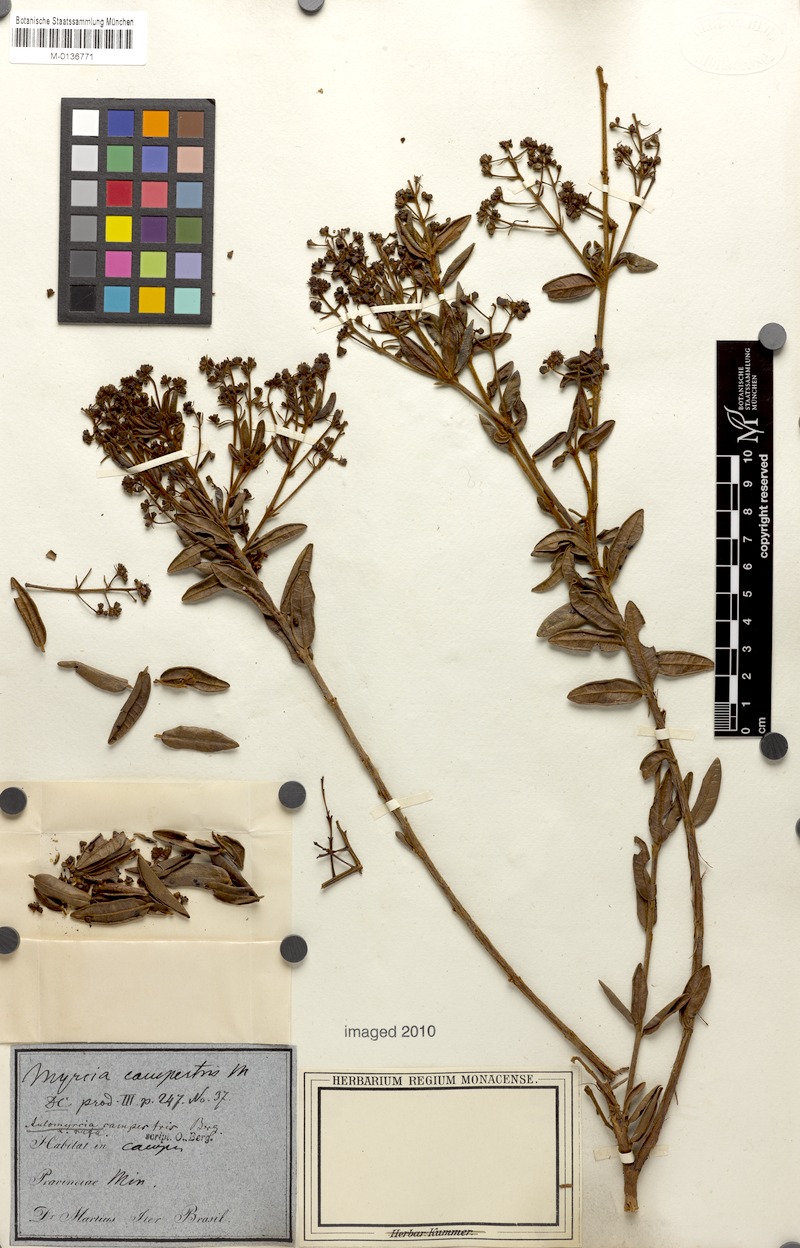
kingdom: Plantae
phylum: Tracheophyta
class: Magnoliopsida
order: Myrtales
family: Myrtaceae
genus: Myrcia
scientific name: Myrcia guianensis
